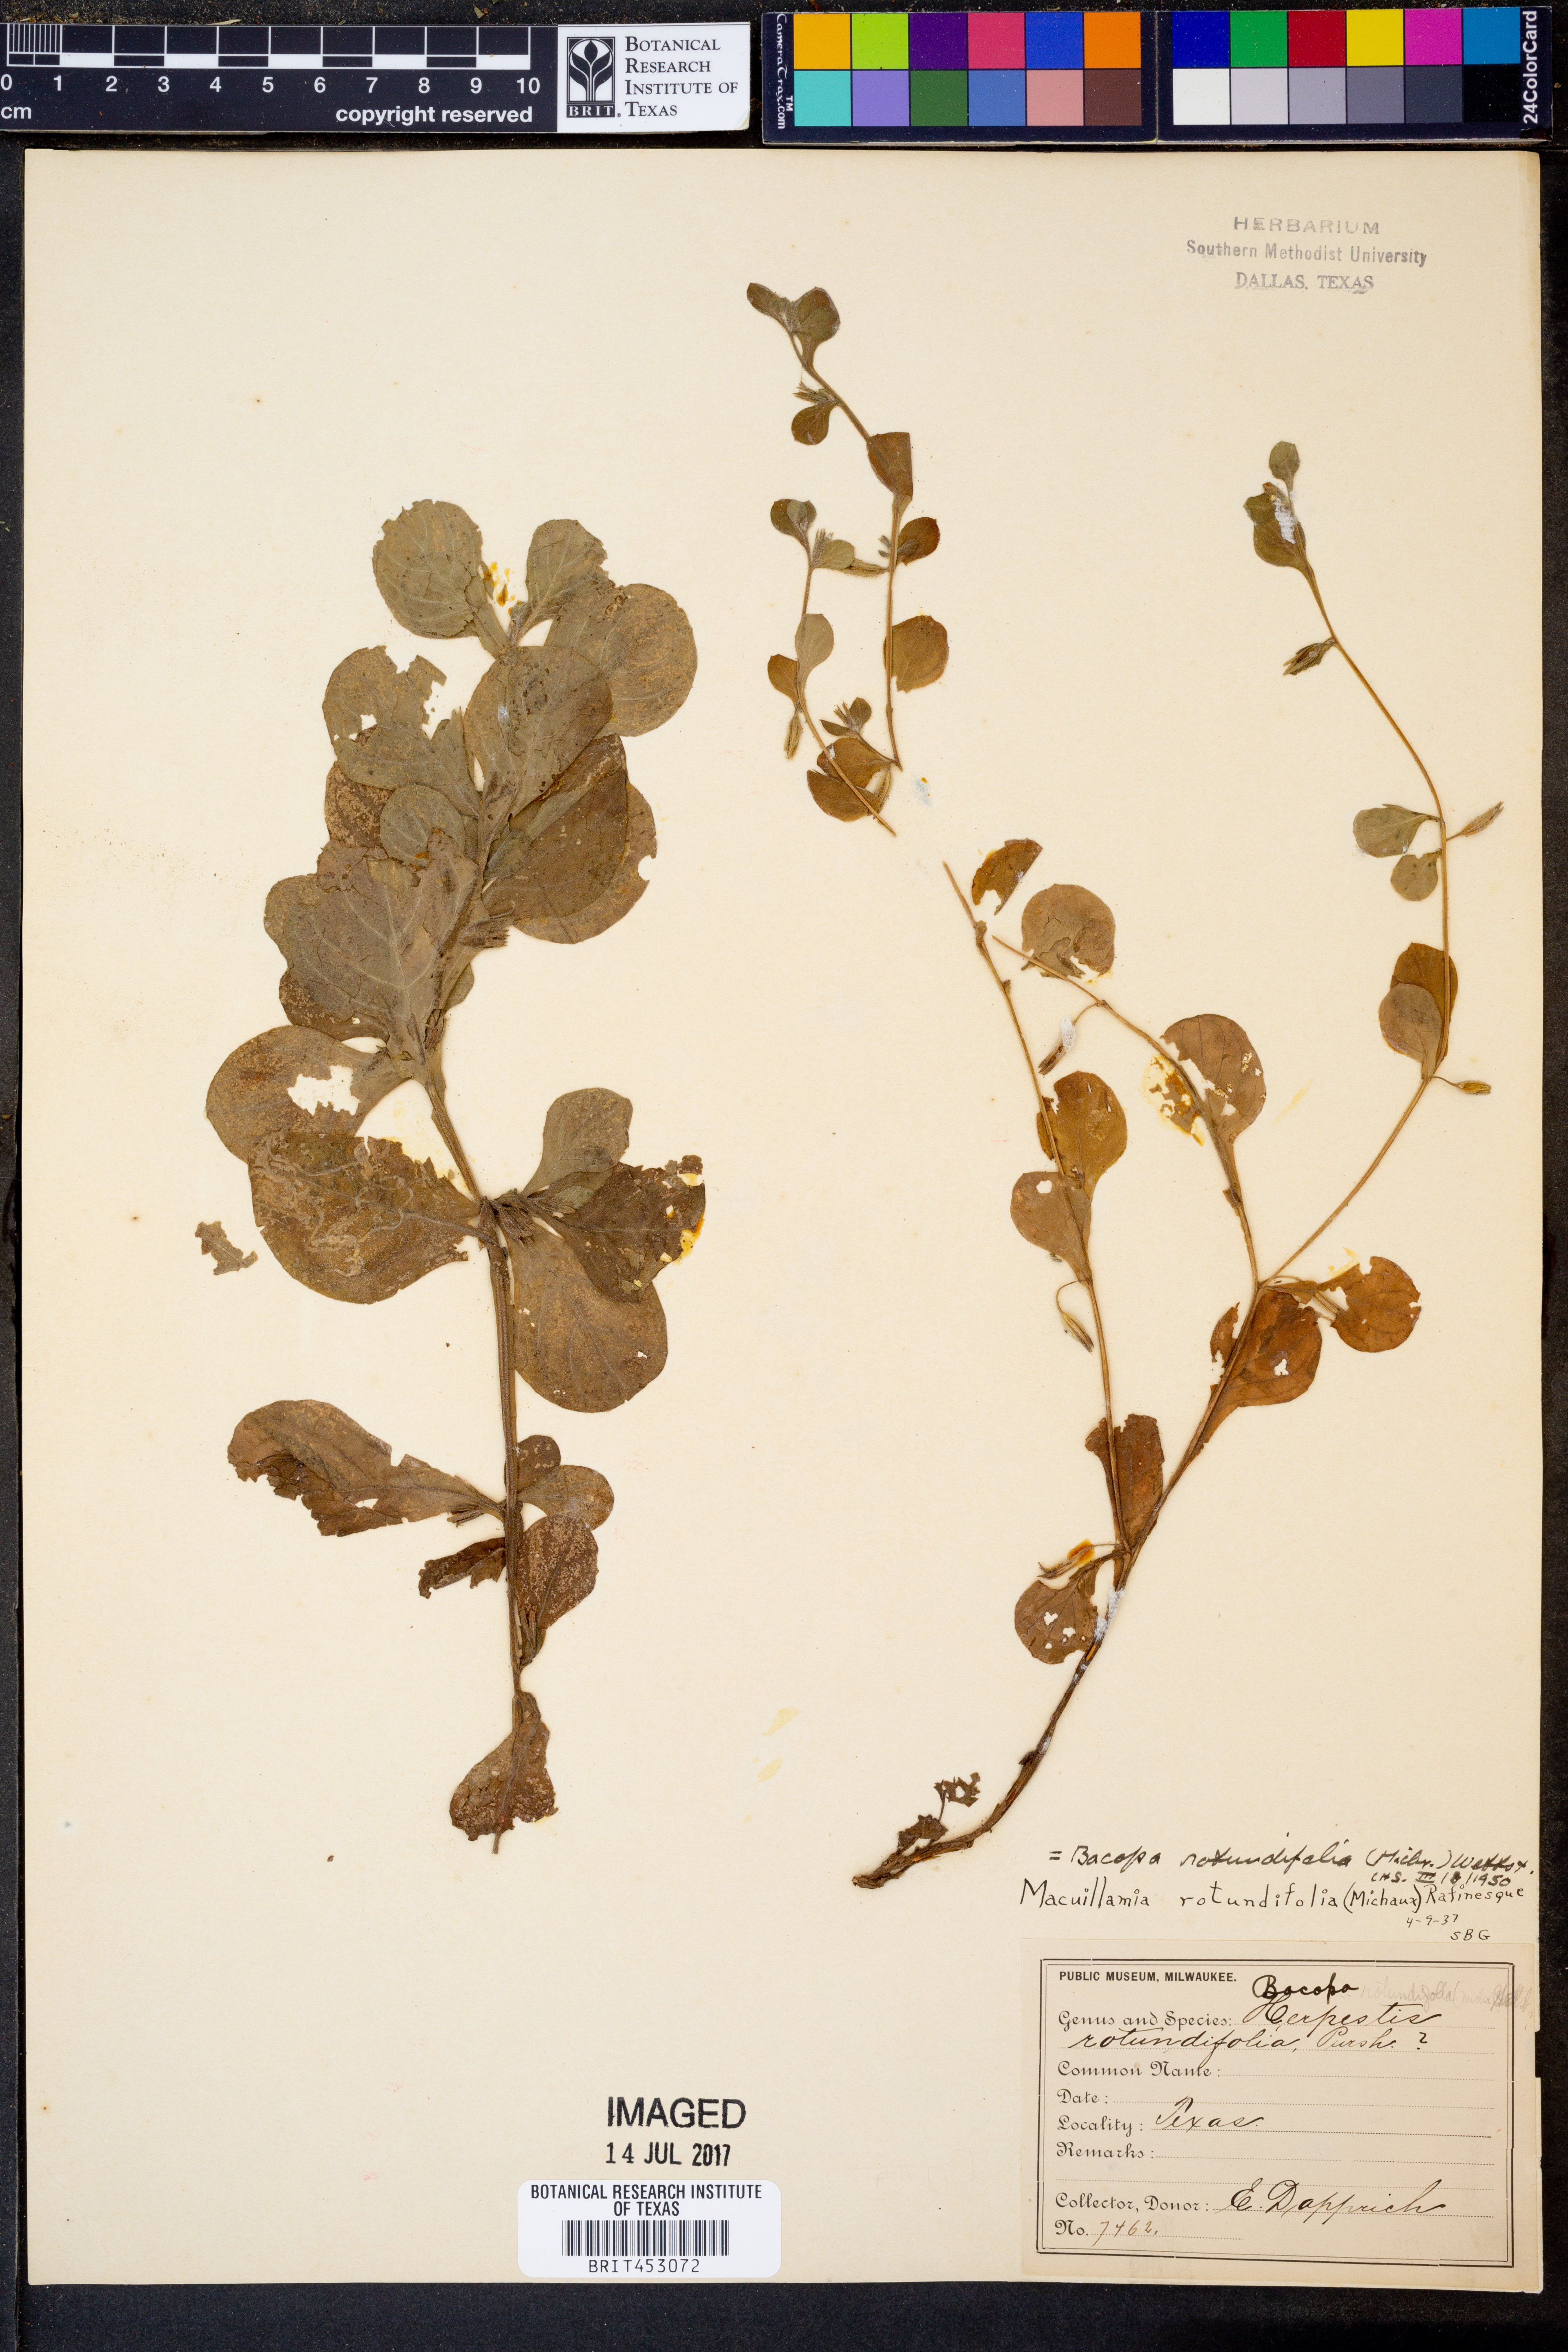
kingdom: Plantae
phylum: Tracheophyta
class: Magnoliopsida
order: Lamiales
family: Plantaginaceae
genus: Bacopa
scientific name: Bacopa rotundifolia
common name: Disc water hyssop
